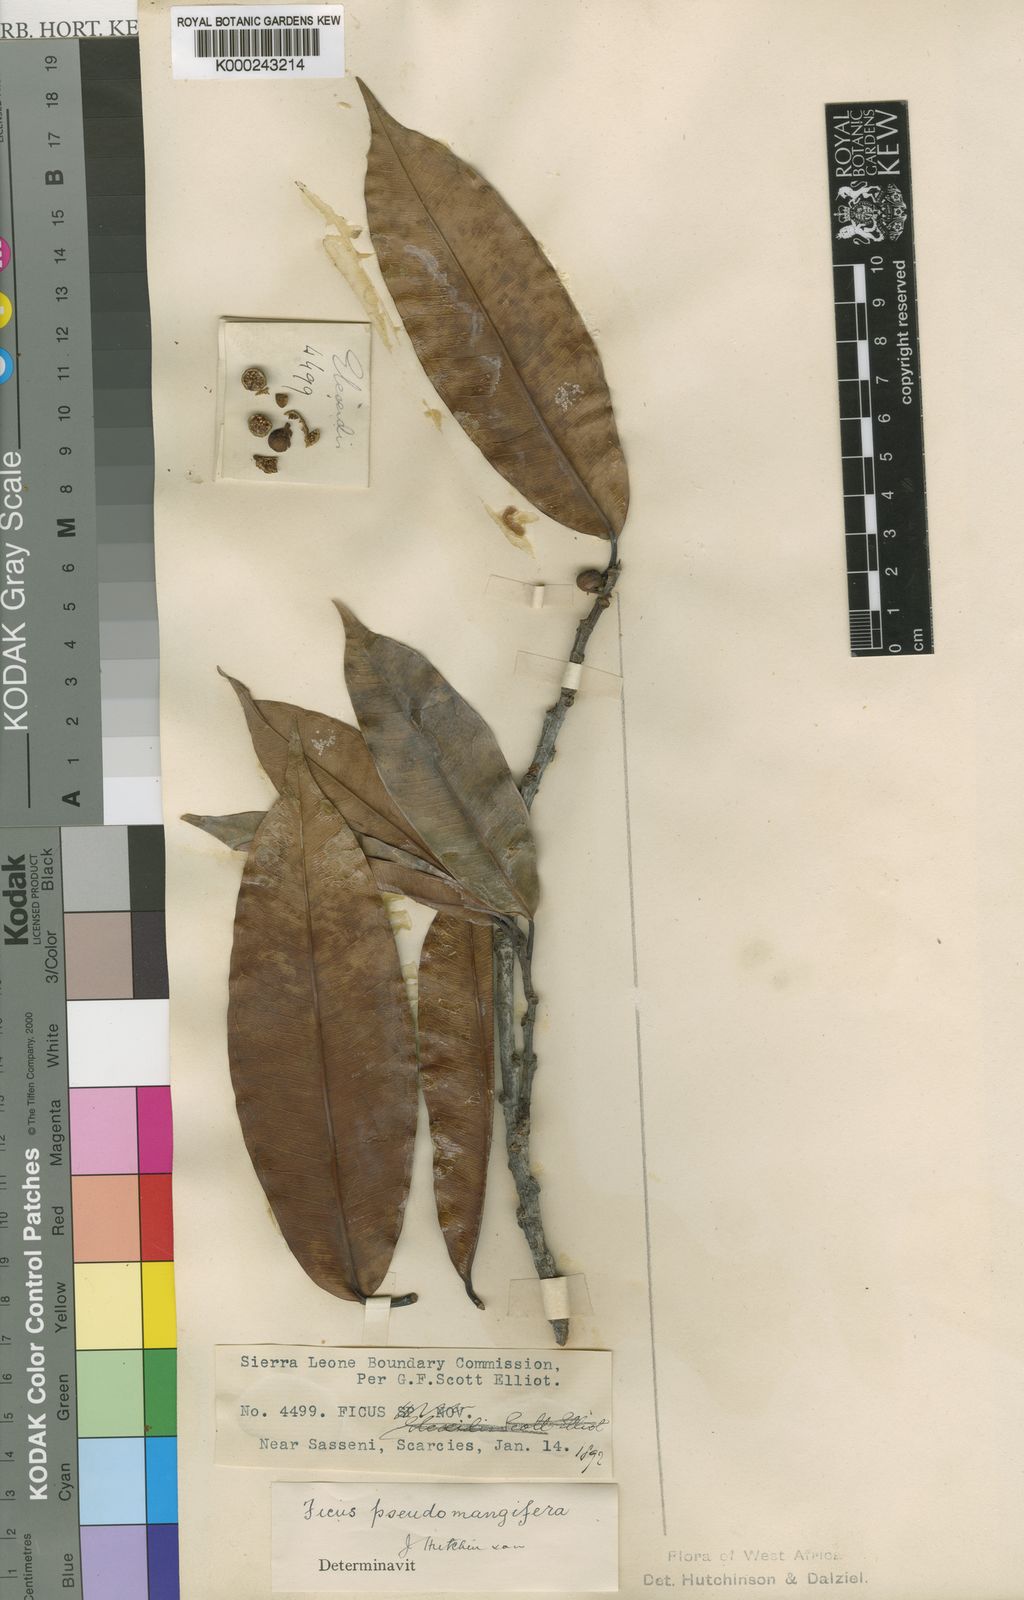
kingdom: Plantae
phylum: Tracheophyta
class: Magnoliopsida
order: Rosales
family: Moraceae
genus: Ficus
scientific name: Ficus pseudomangifera
